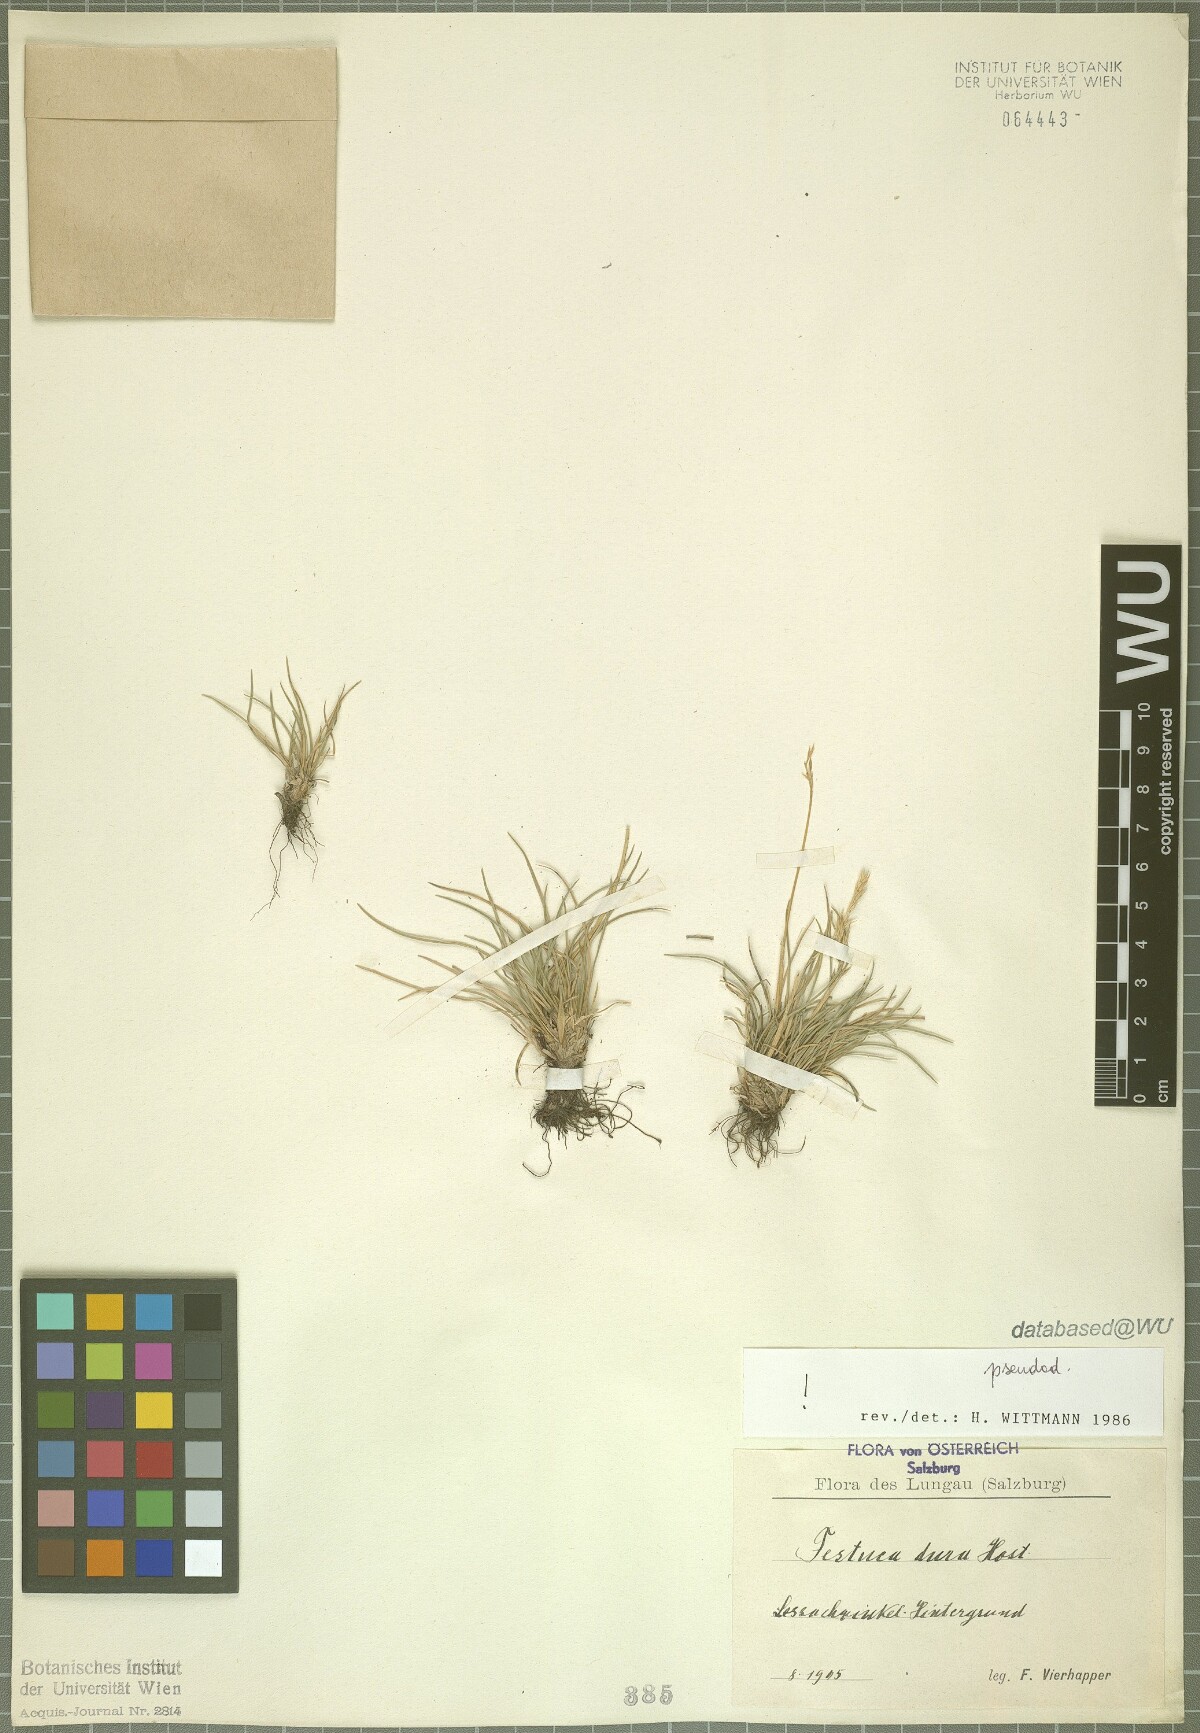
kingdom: Plantae
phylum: Tracheophyta
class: Liliopsida
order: Poales
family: Poaceae
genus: Festuca
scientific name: Festuca pseudodura
